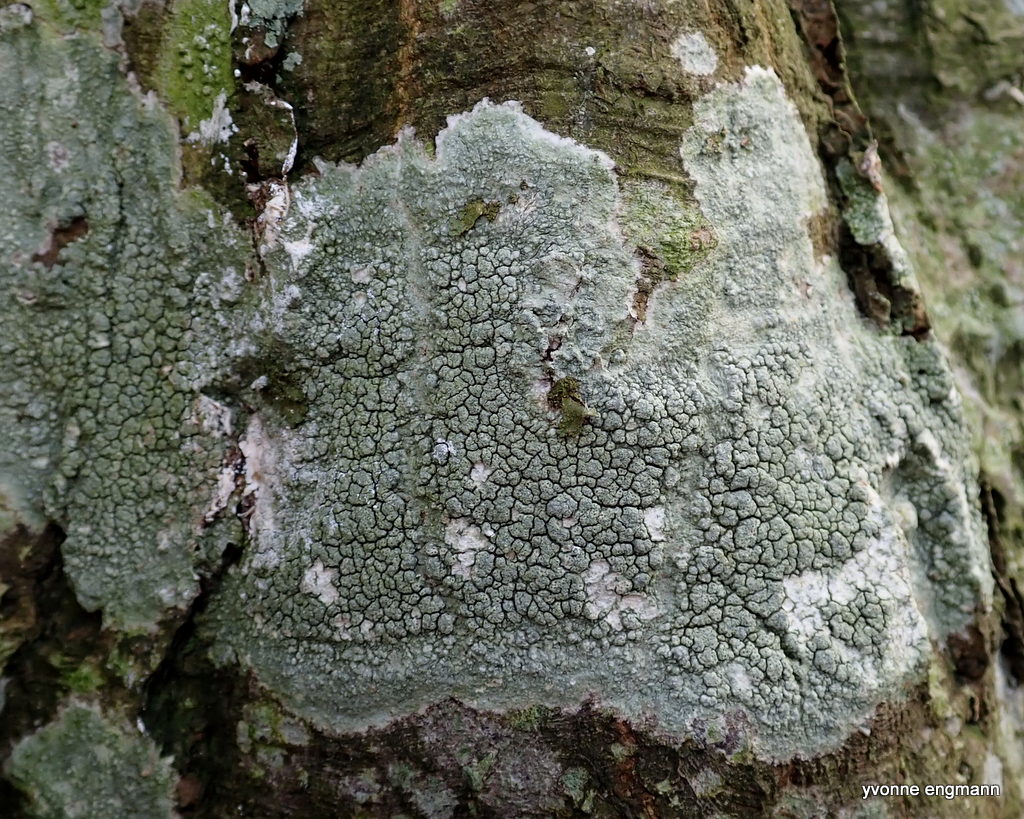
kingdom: Fungi
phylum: Ascomycota
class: Lecanoromycetes
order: Pertusariales
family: Pertusariaceae
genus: Pertusaria
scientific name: Pertusaria pertusa
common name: almindelig prikvortelav
